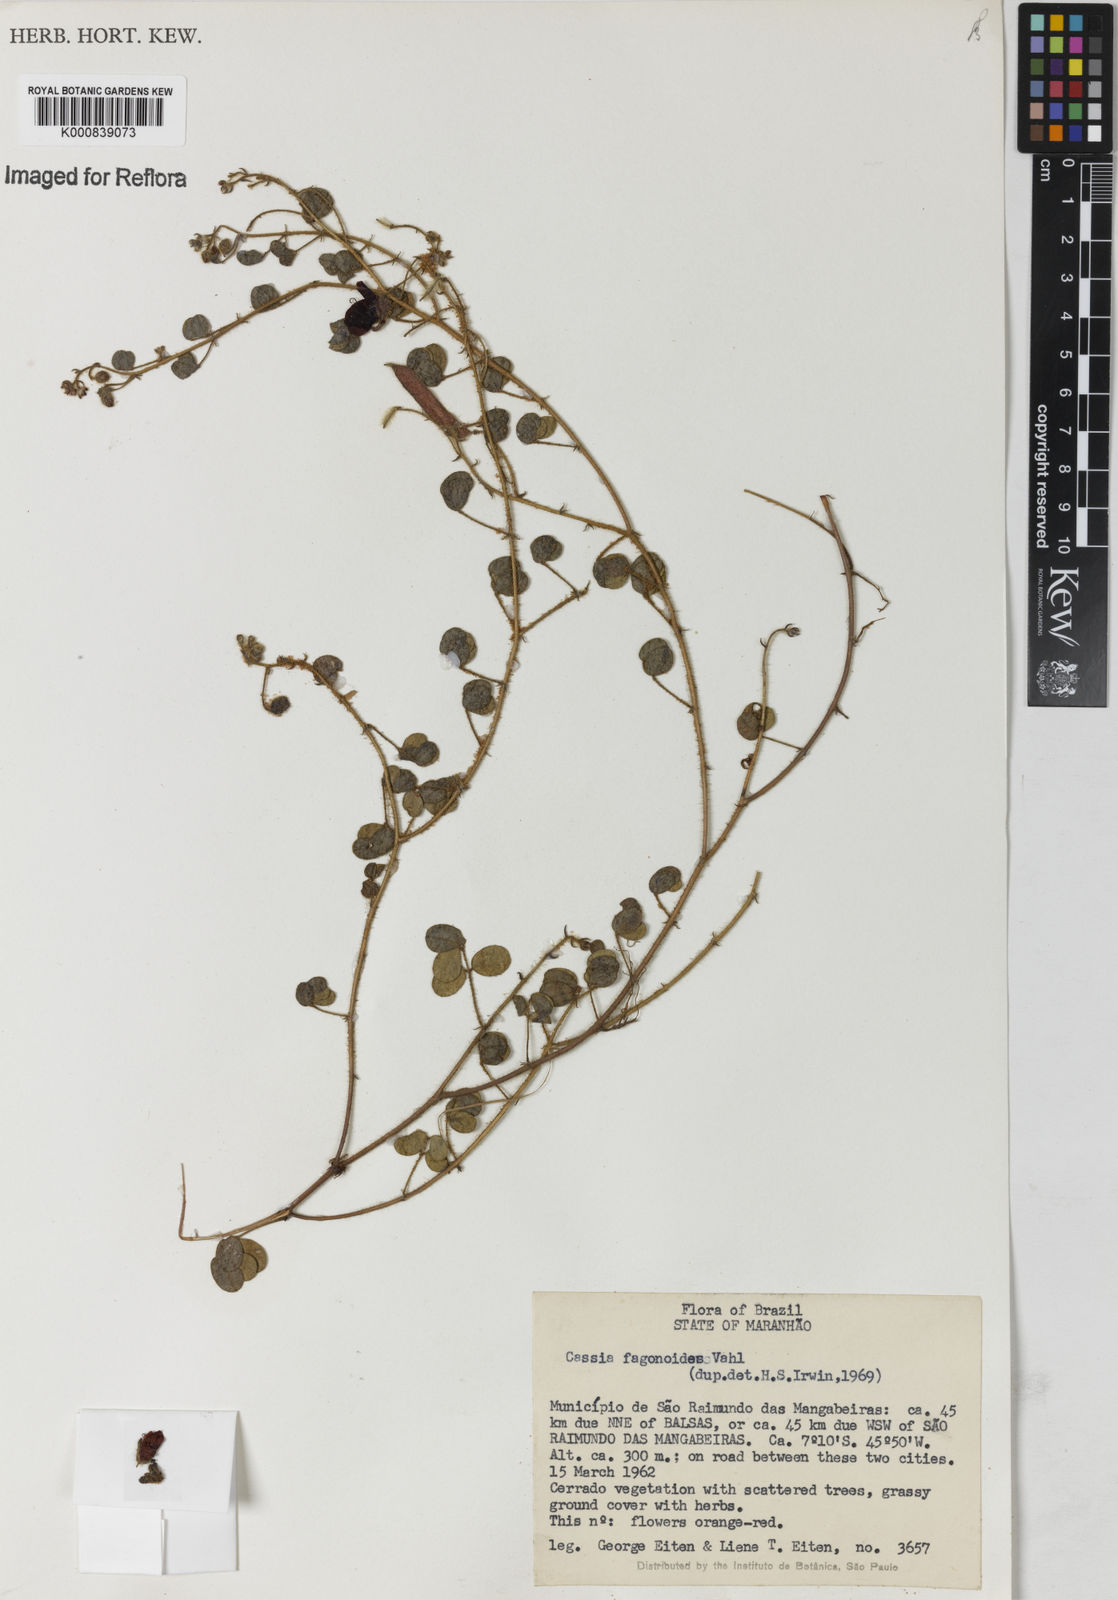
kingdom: Plantae
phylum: Tracheophyta
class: Magnoliopsida
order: Fabales
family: Fabaceae
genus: Chamaecrista
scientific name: Chamaecrista fagonioides
